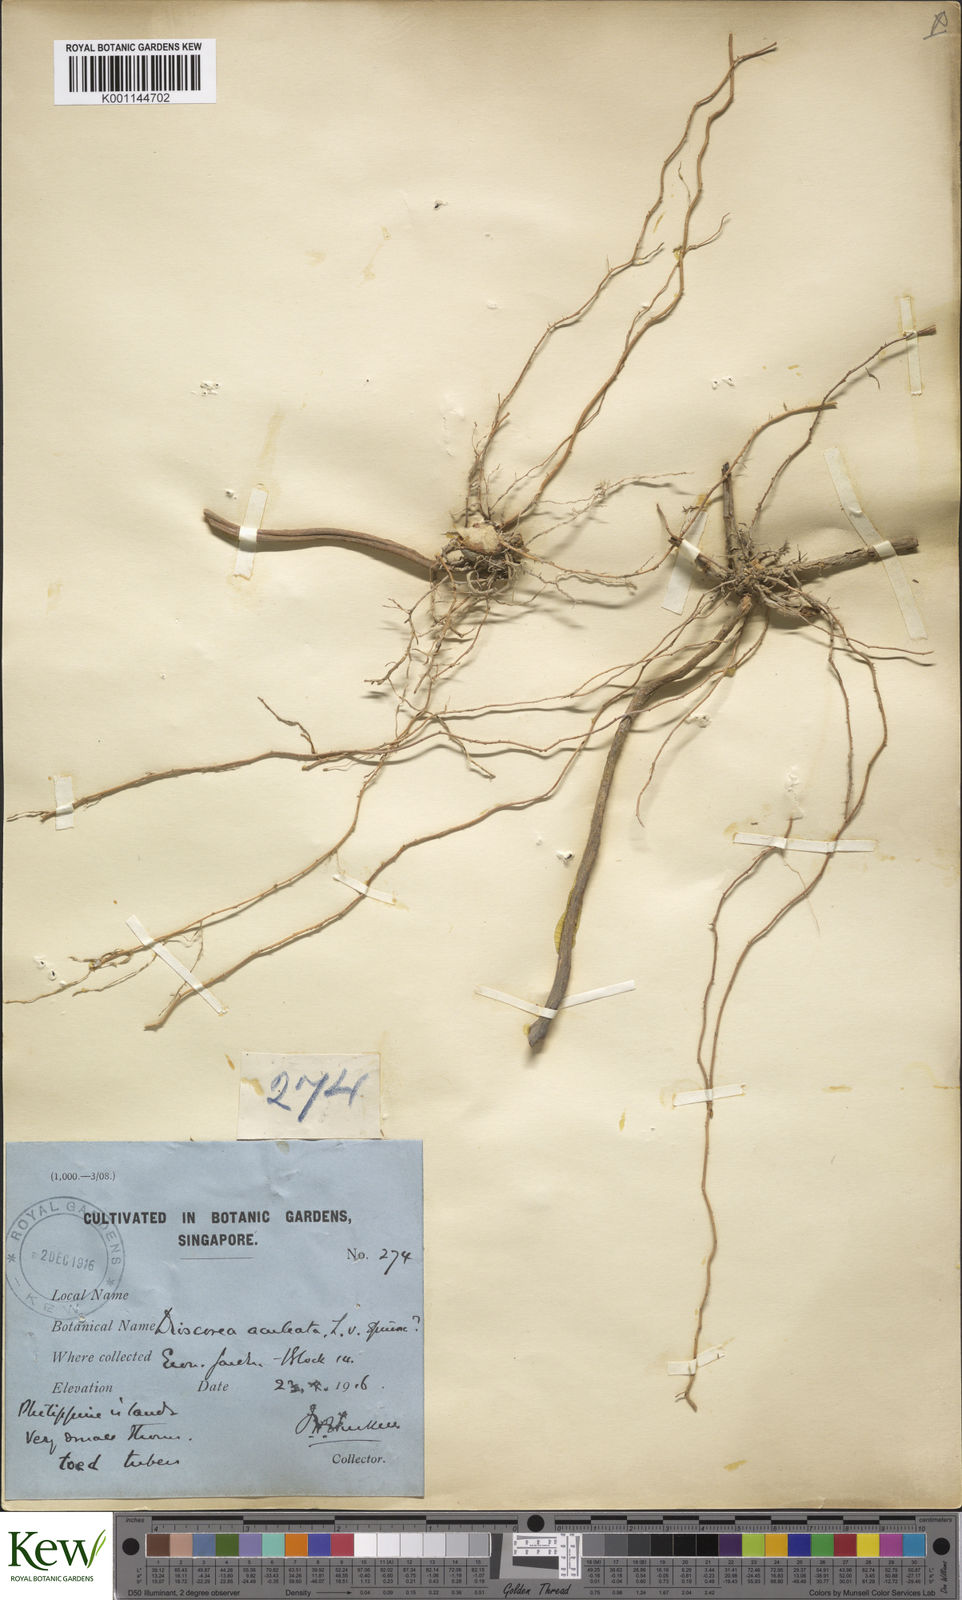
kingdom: Plantae
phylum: Tracheophyta
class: Liliopsida
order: Dioscoreales
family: Dioscoreaceae
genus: Dioscorea
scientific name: Dioscorea esculenta
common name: Chinese yam
